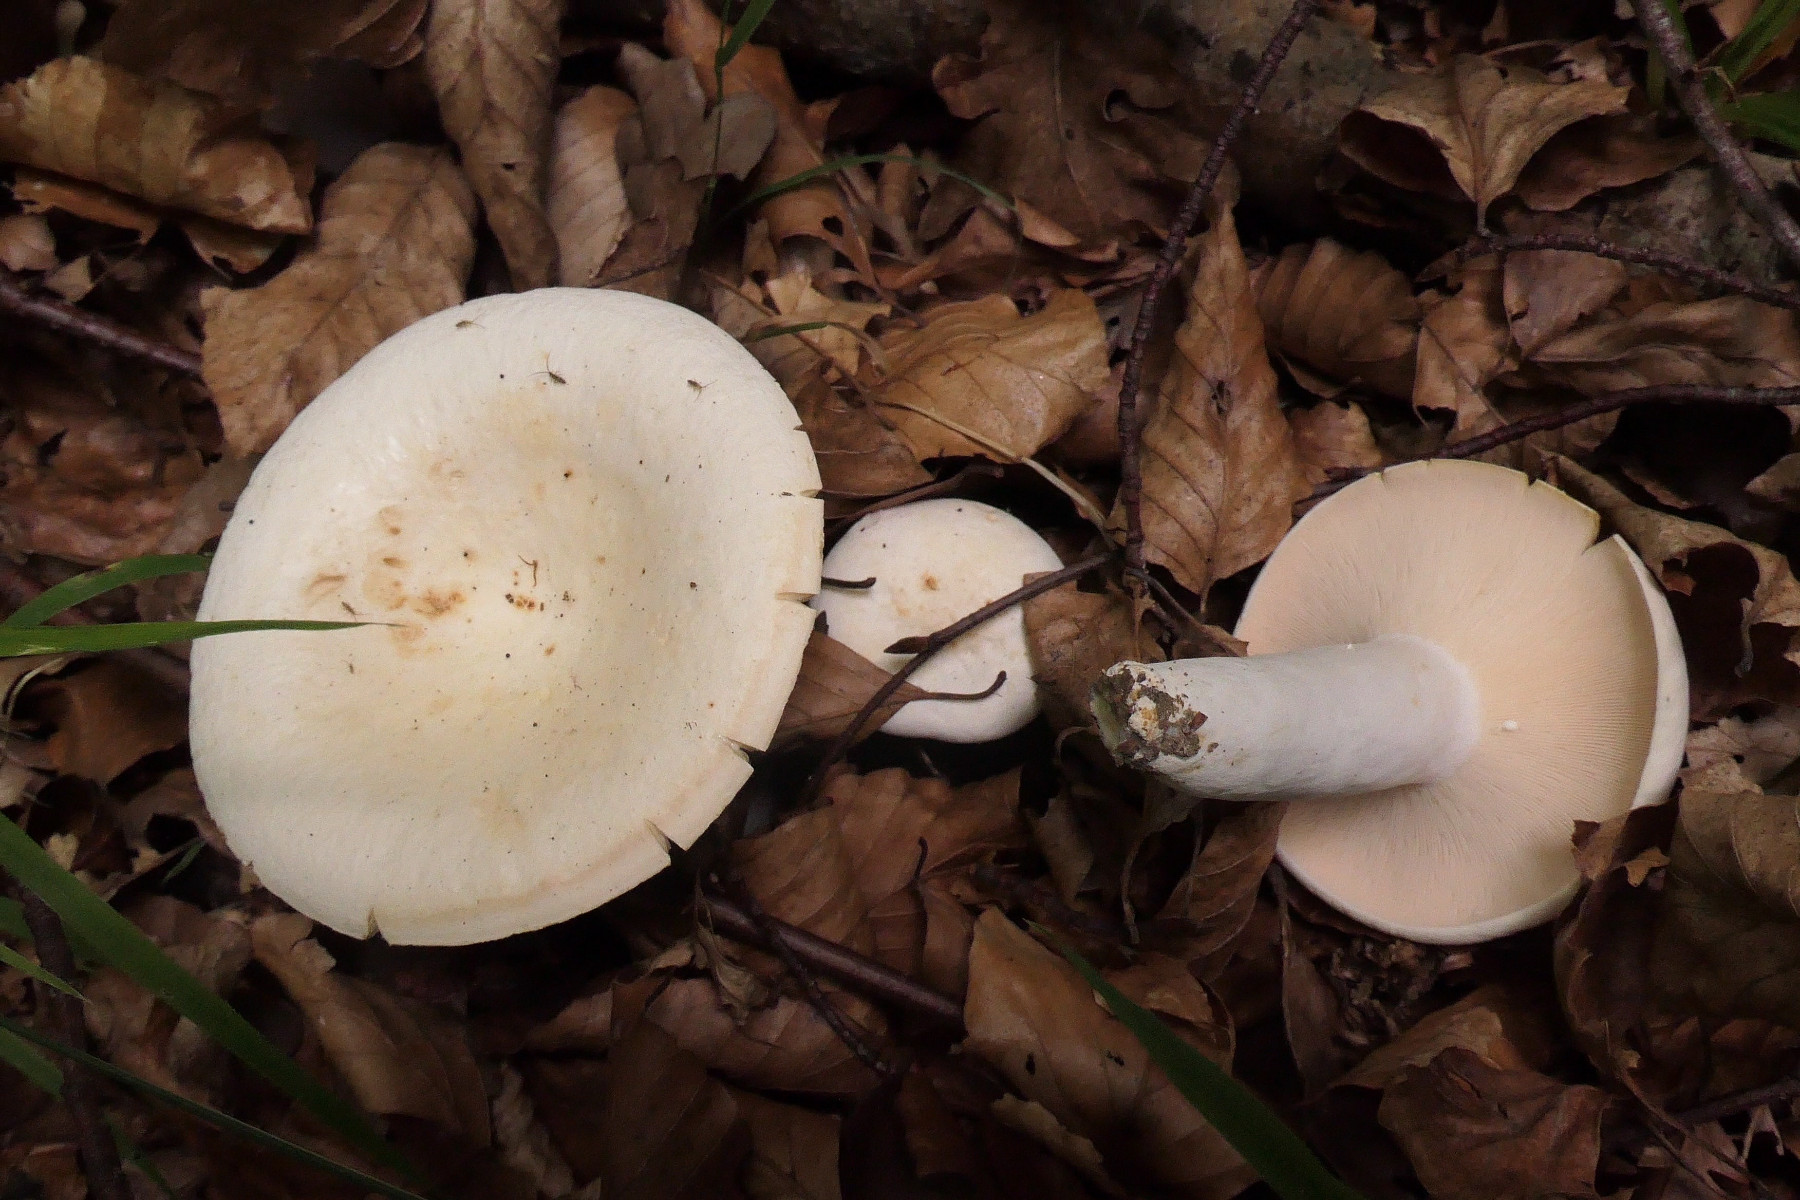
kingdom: Fungi
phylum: Basidiomycota
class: Agaricomycetes
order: Russulales
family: Russulaceae
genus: Lactifluus
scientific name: Lactifluus piperatus
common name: peber-mælkehat
